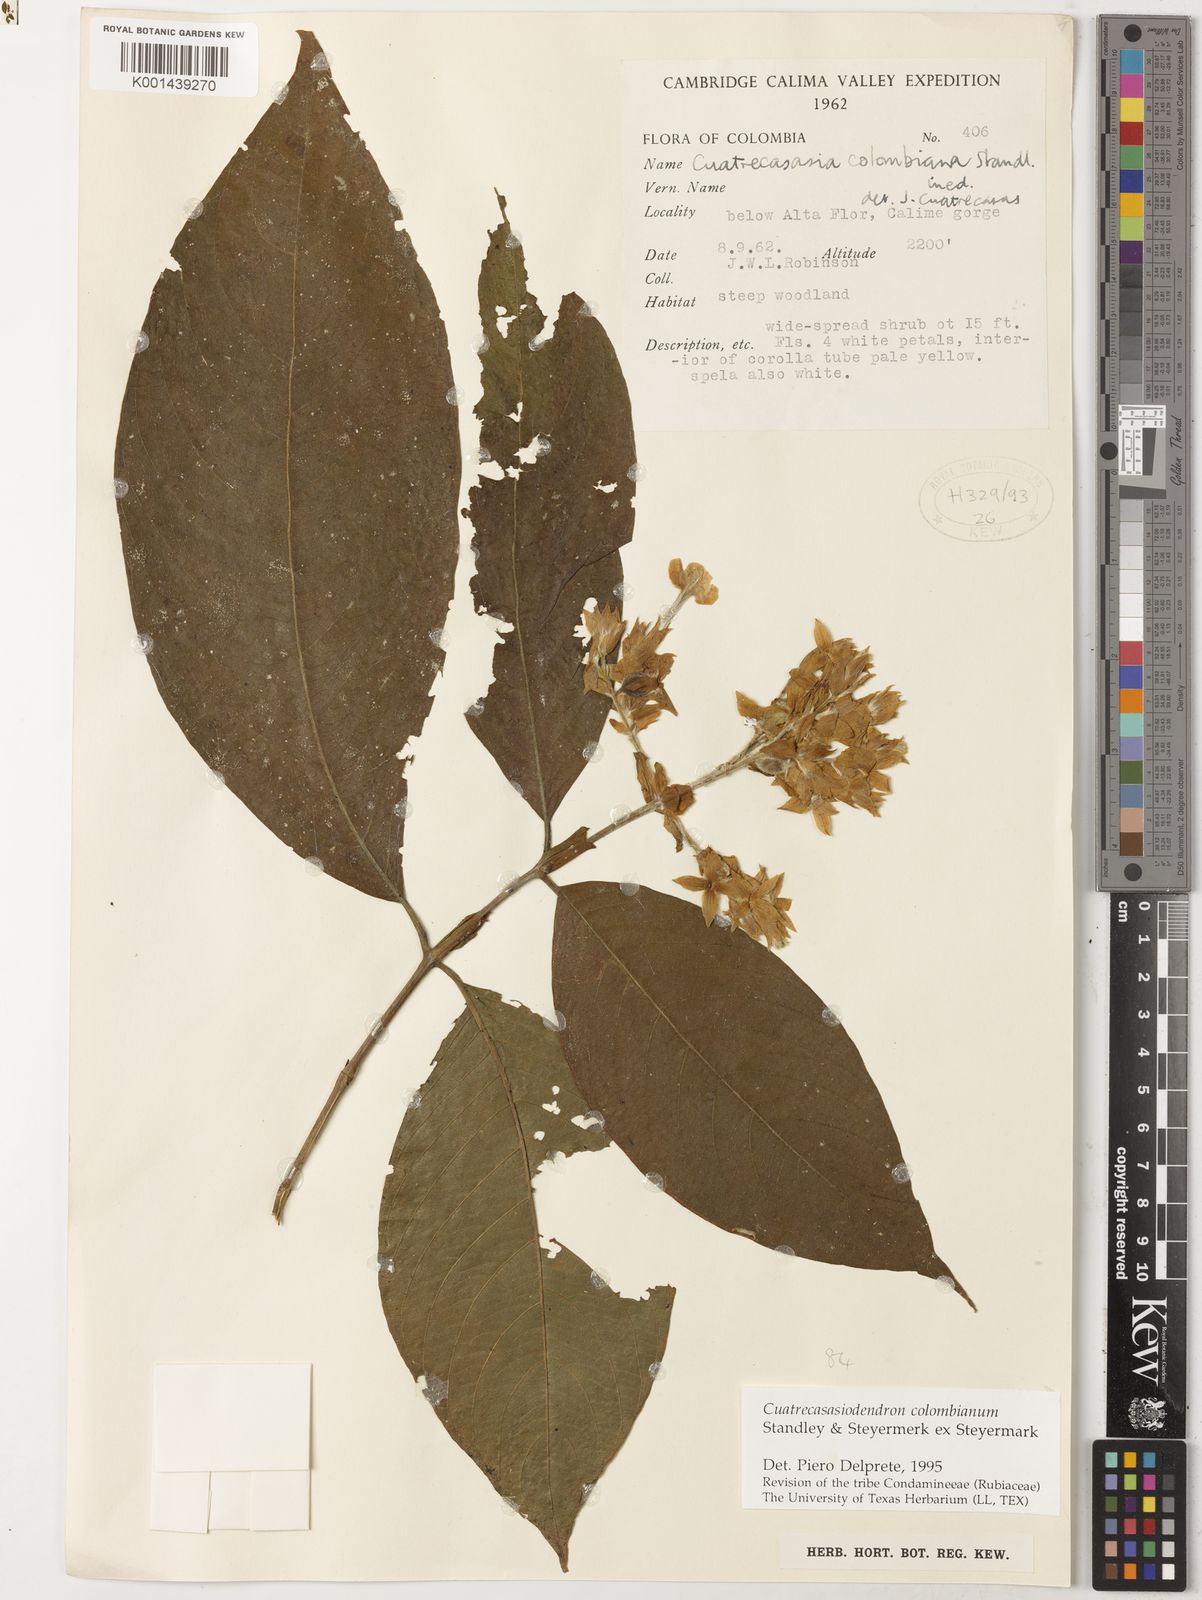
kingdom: Plantae
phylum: Tracheophyta
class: Magnoliopsida
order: Gentianales
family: Rubiaceae
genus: Arachnothryx
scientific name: Arachnothryx colombiana
